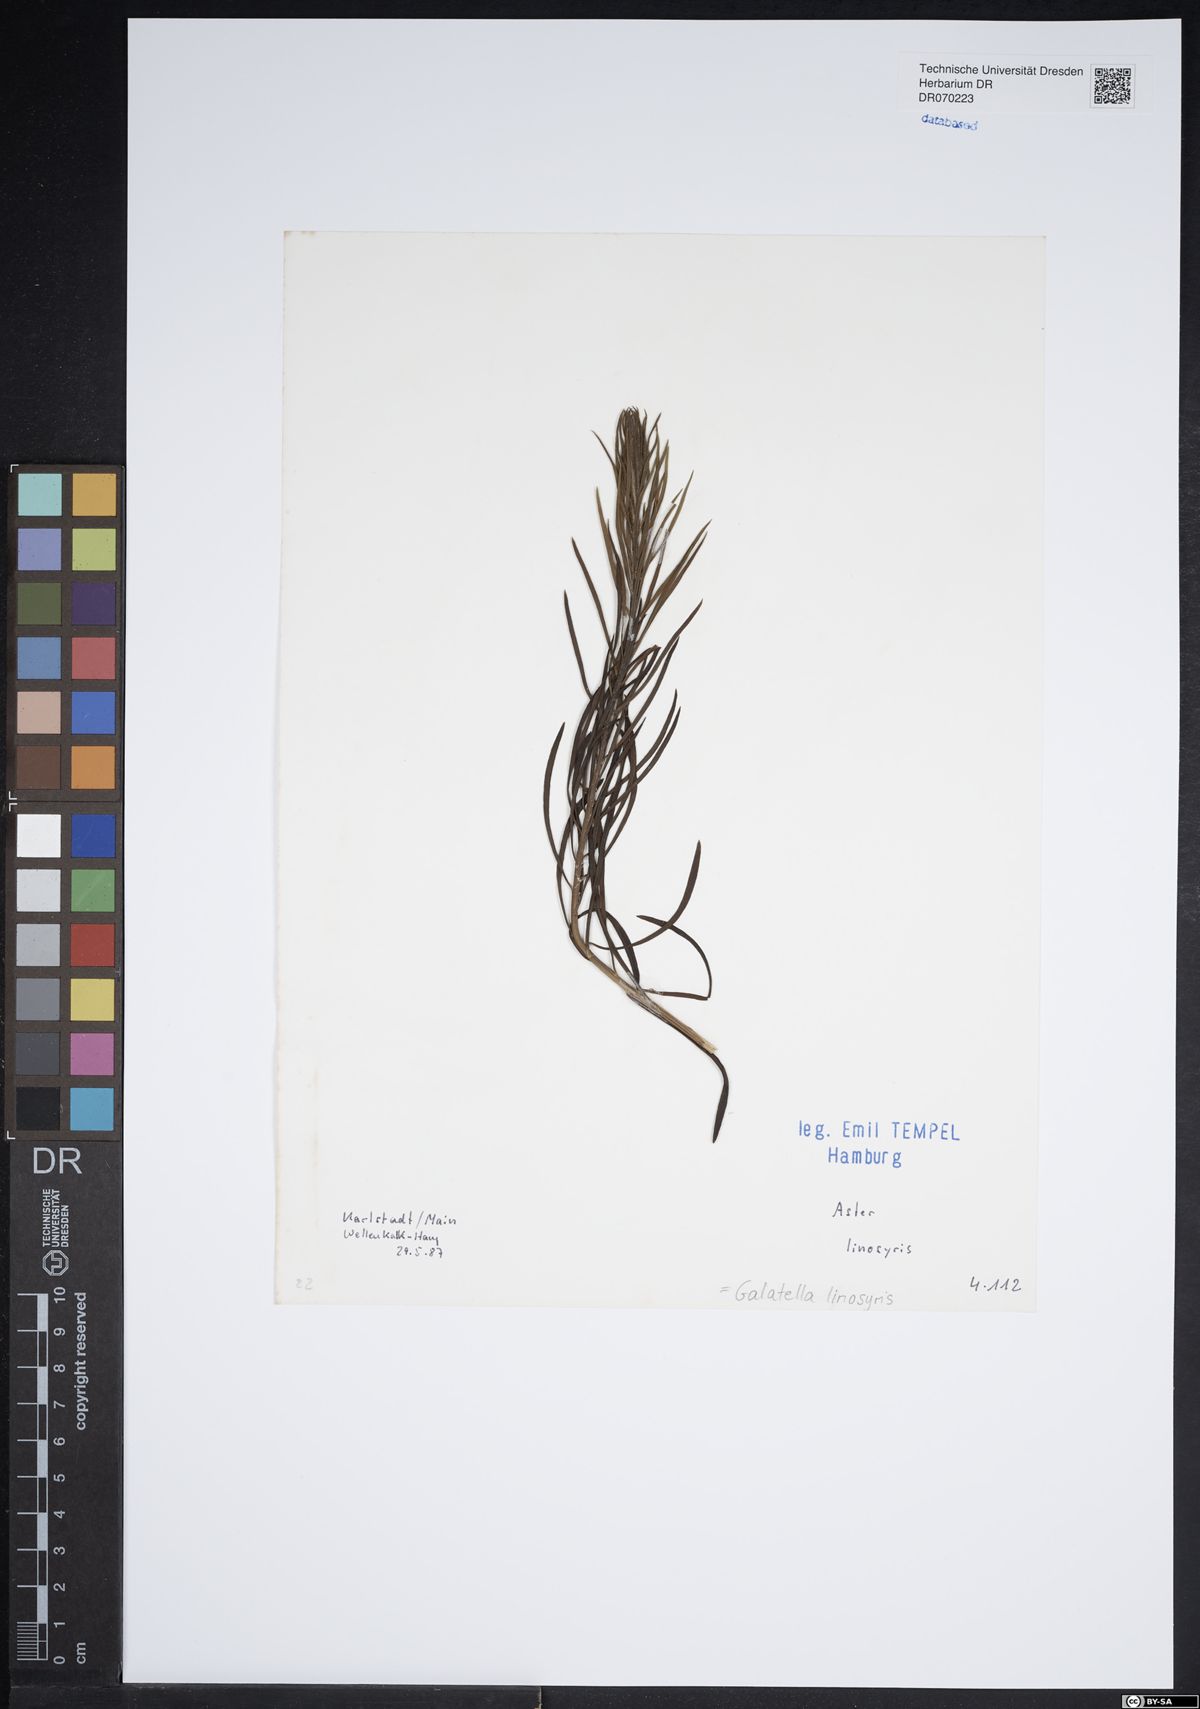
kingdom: Plantae
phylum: Tracheophyta
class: Magnoliopsida
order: Asterales
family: Asteraceae
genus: Galatella
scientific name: Galatella linosyris
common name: Goldilocks aster
